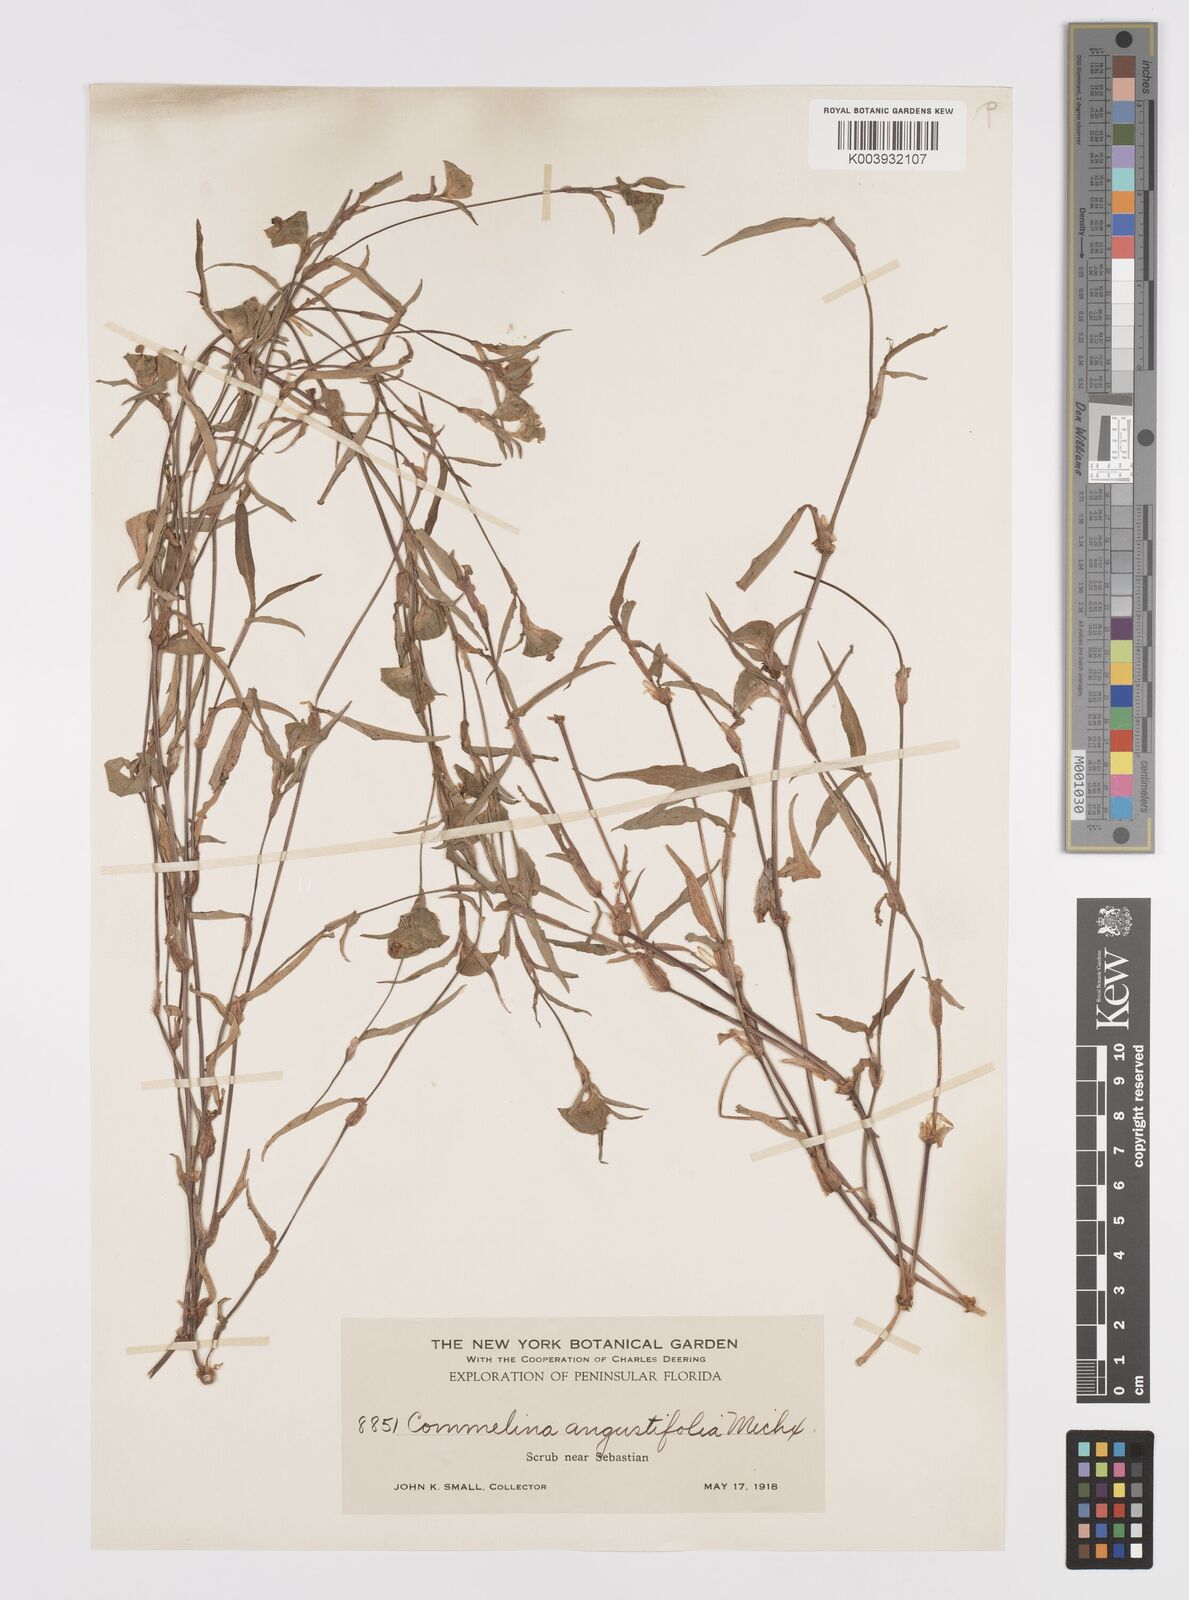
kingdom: Plantae
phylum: Tracheophyta
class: Liliopsida
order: Commelinales
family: Commelinaceae
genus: Commelina
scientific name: Commelina erecta
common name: Blousel blommetjie
